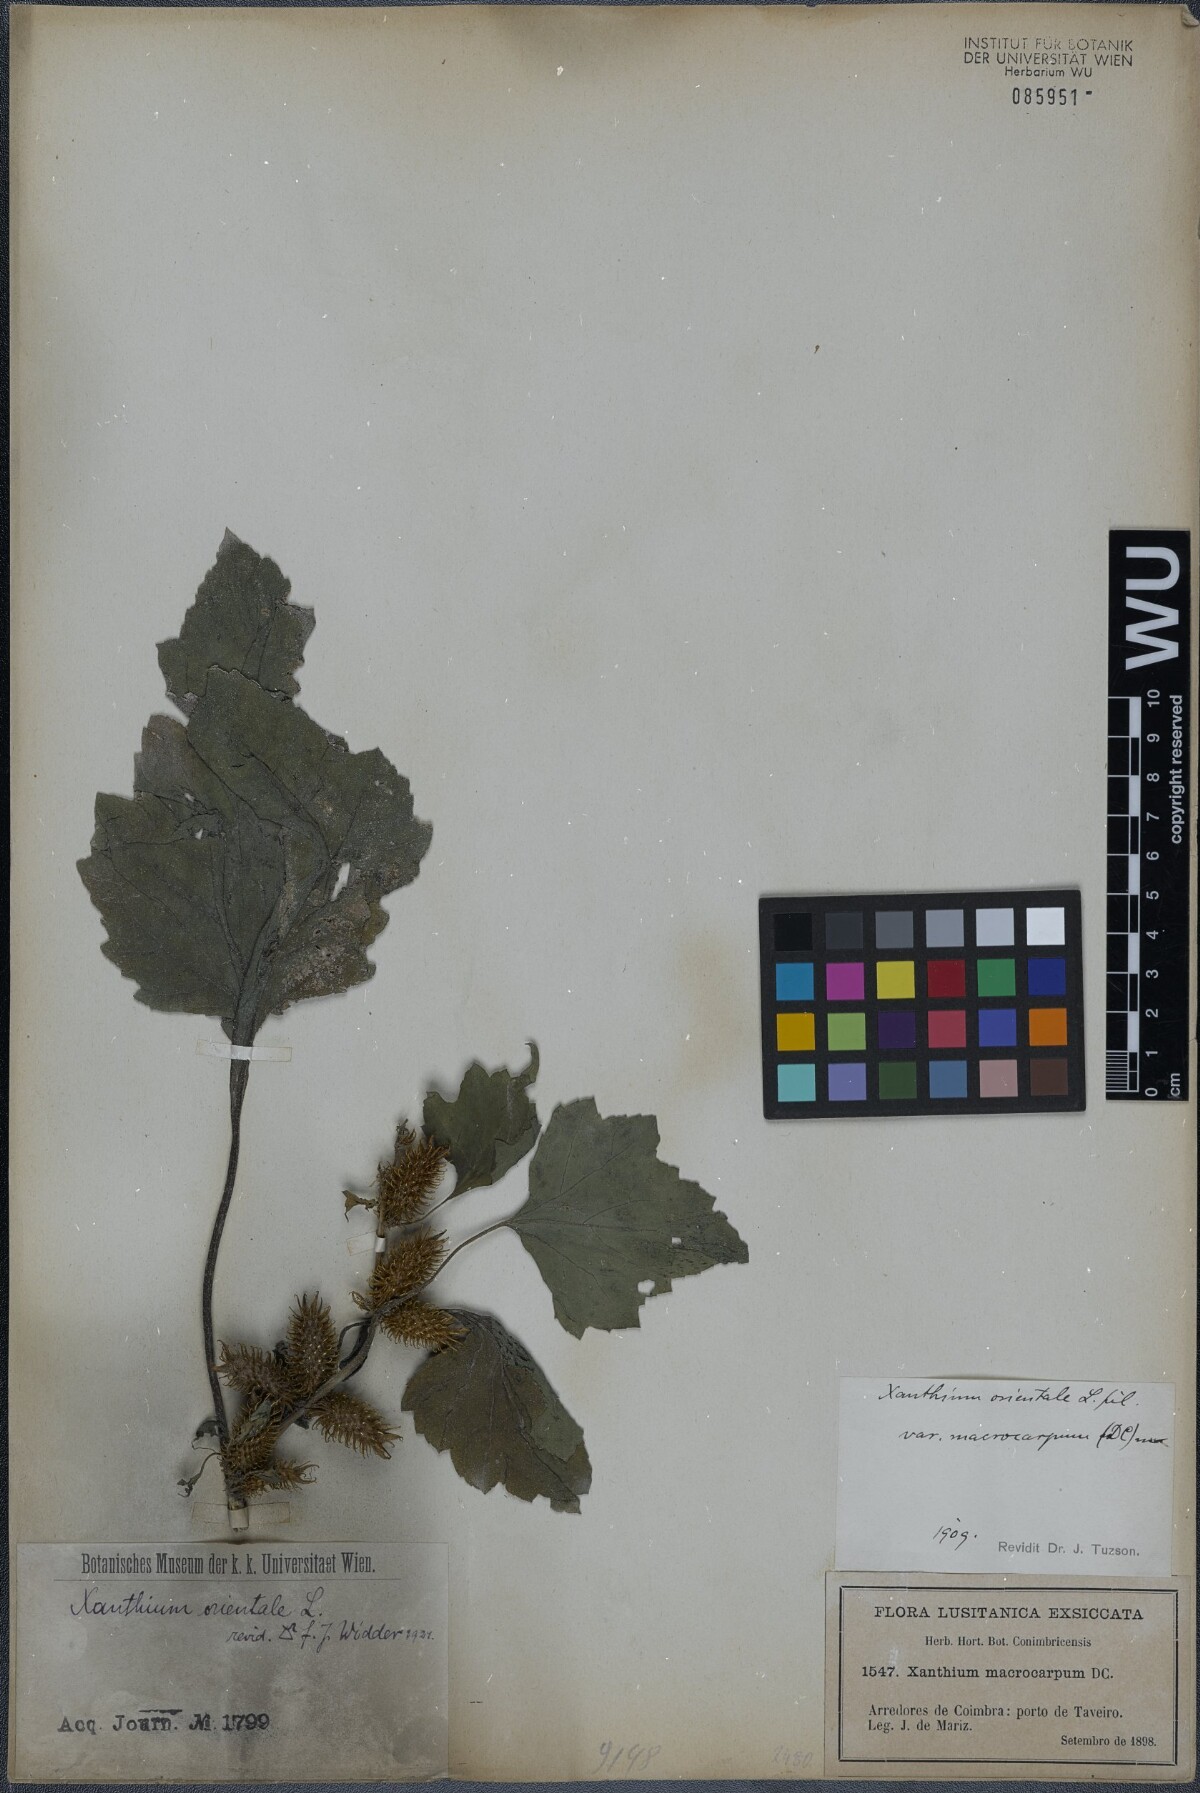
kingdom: Plantae
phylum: Tracheophyta
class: Magnoliopsida
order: Asterales
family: Asteraceae
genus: Xanthium
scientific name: Xanthium orientale
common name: Californian burr
